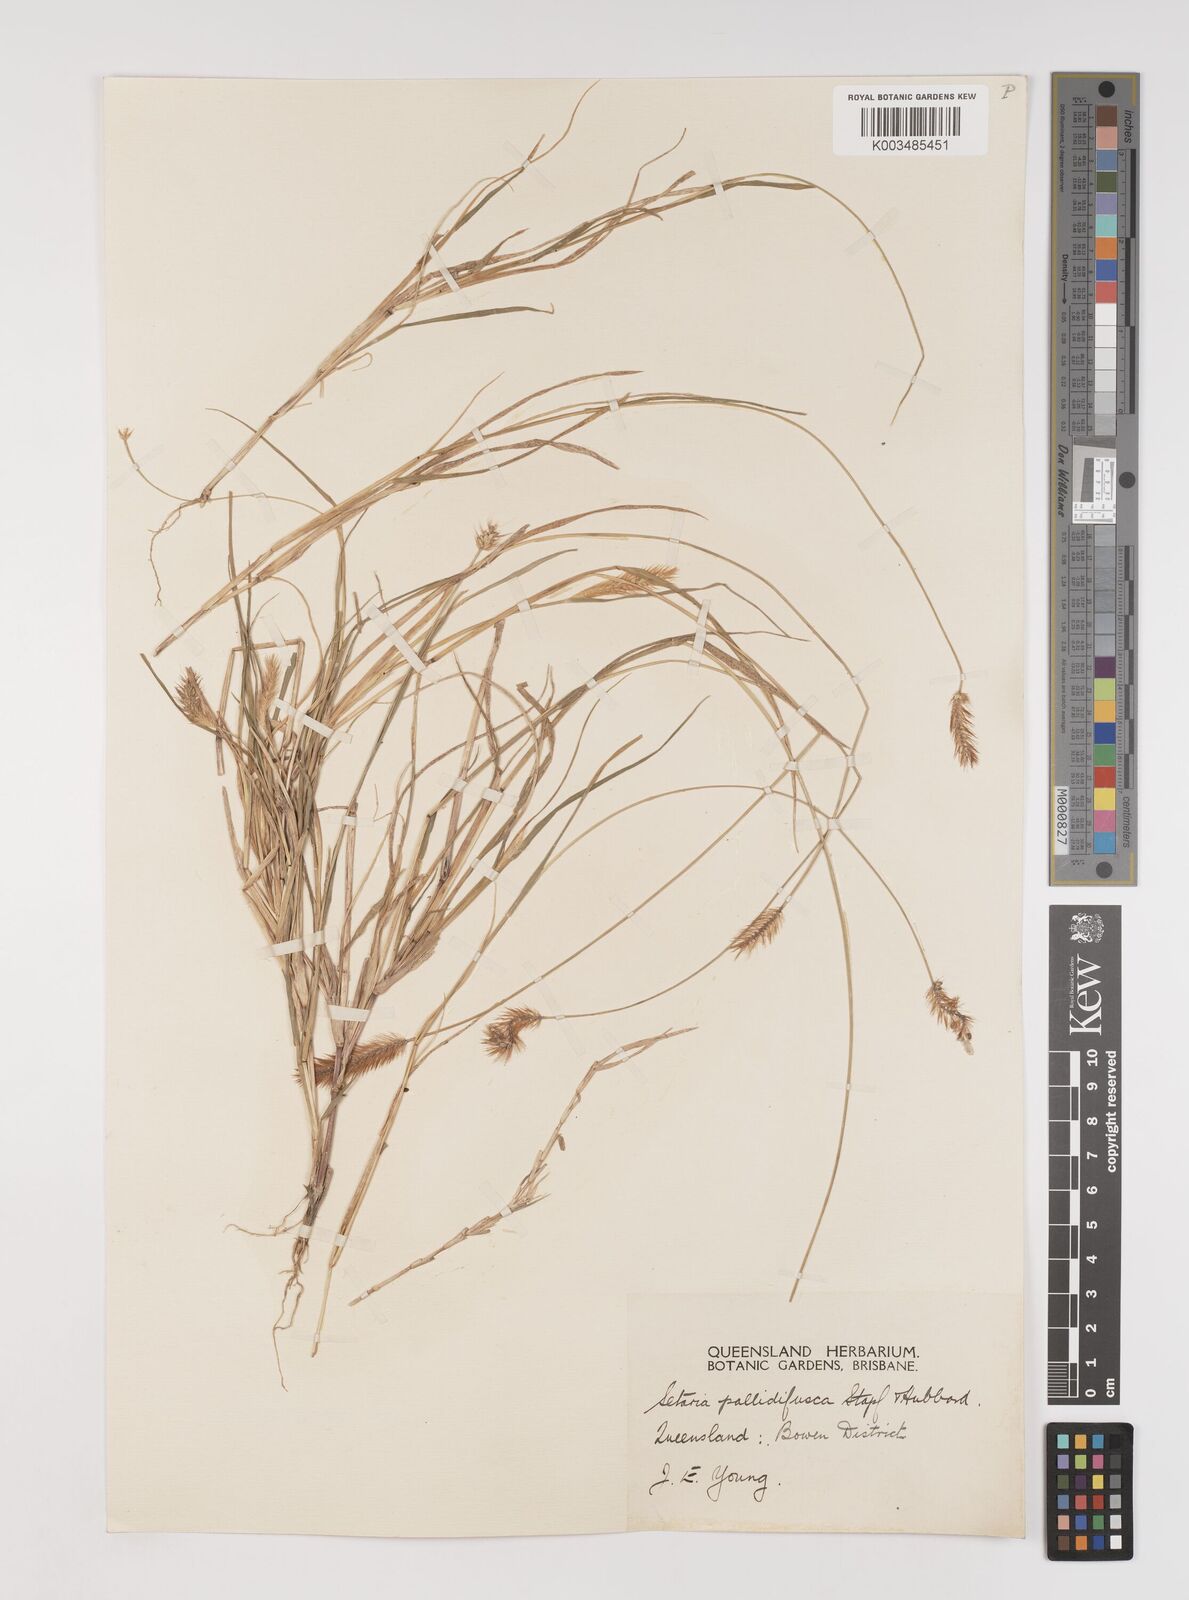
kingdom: Plantae
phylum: Tracheophyta
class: Liliopsida
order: Poales
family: Poaceae
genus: Setaria
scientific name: Setaria pumila
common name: Yellow bristle-grass
